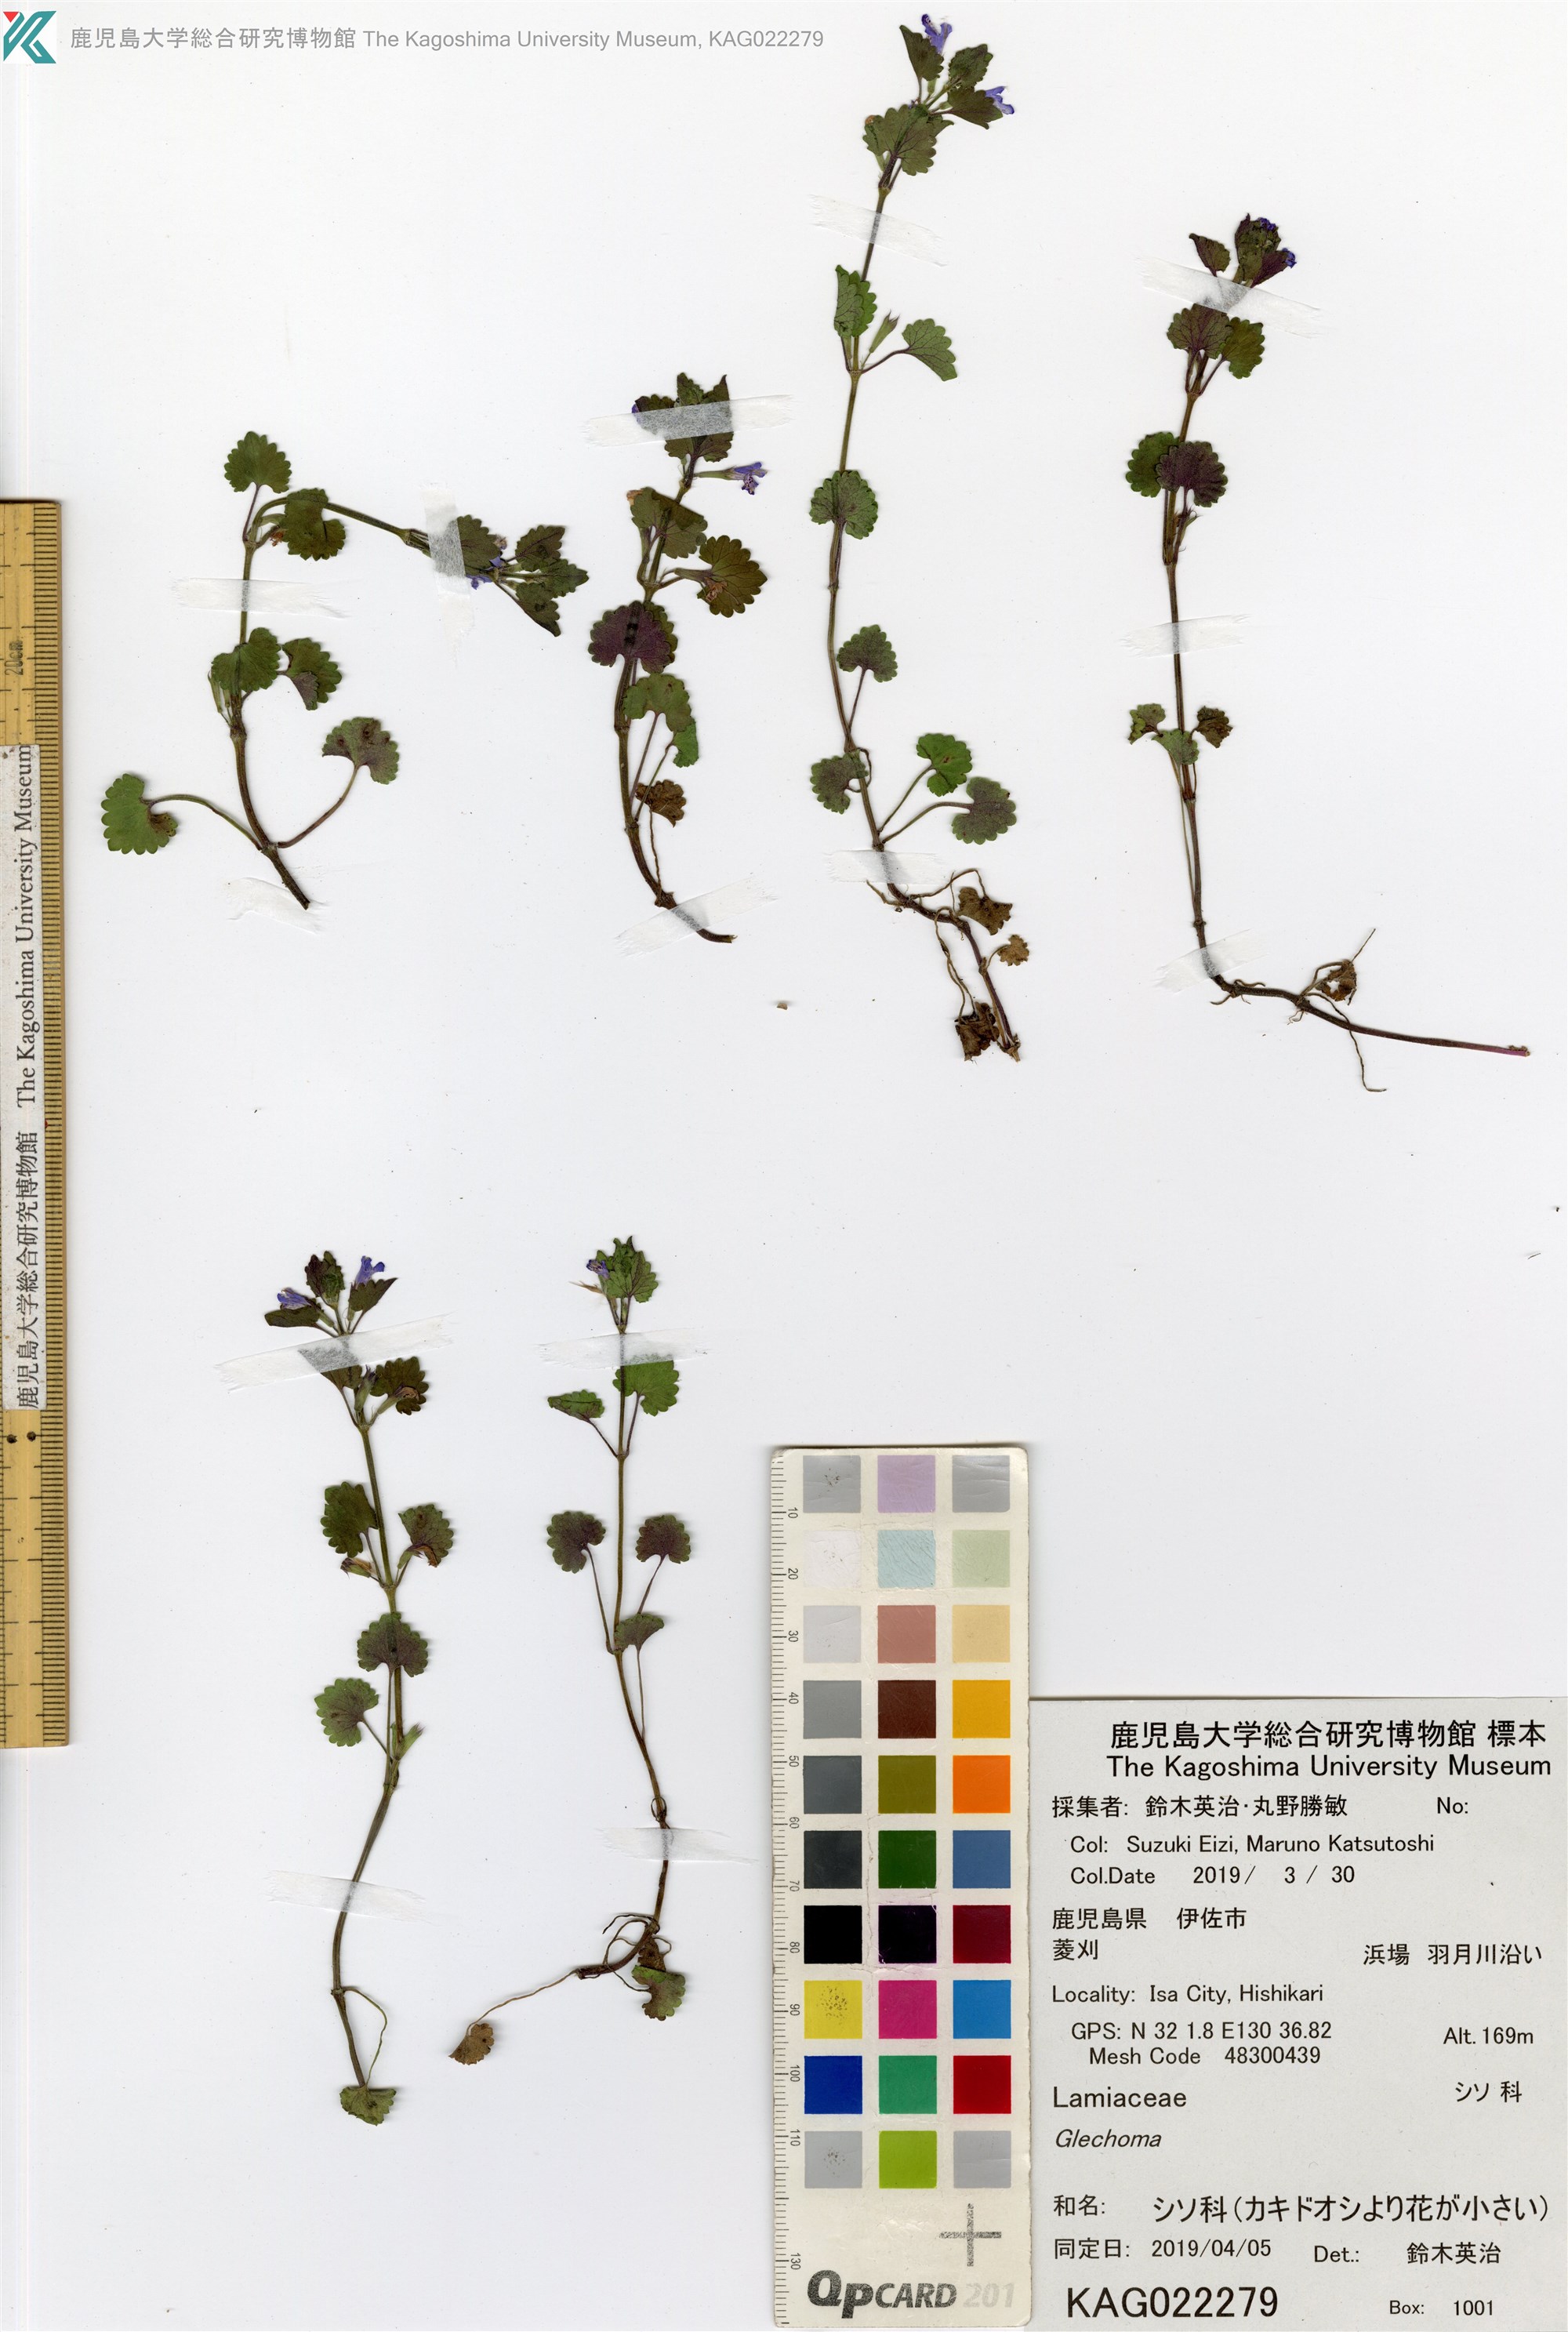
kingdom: Plantae
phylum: Tracheophyta
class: Magnoliopsida
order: Lamiales
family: Lamiaceae
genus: Glechoma
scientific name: Glechoma hederacea
